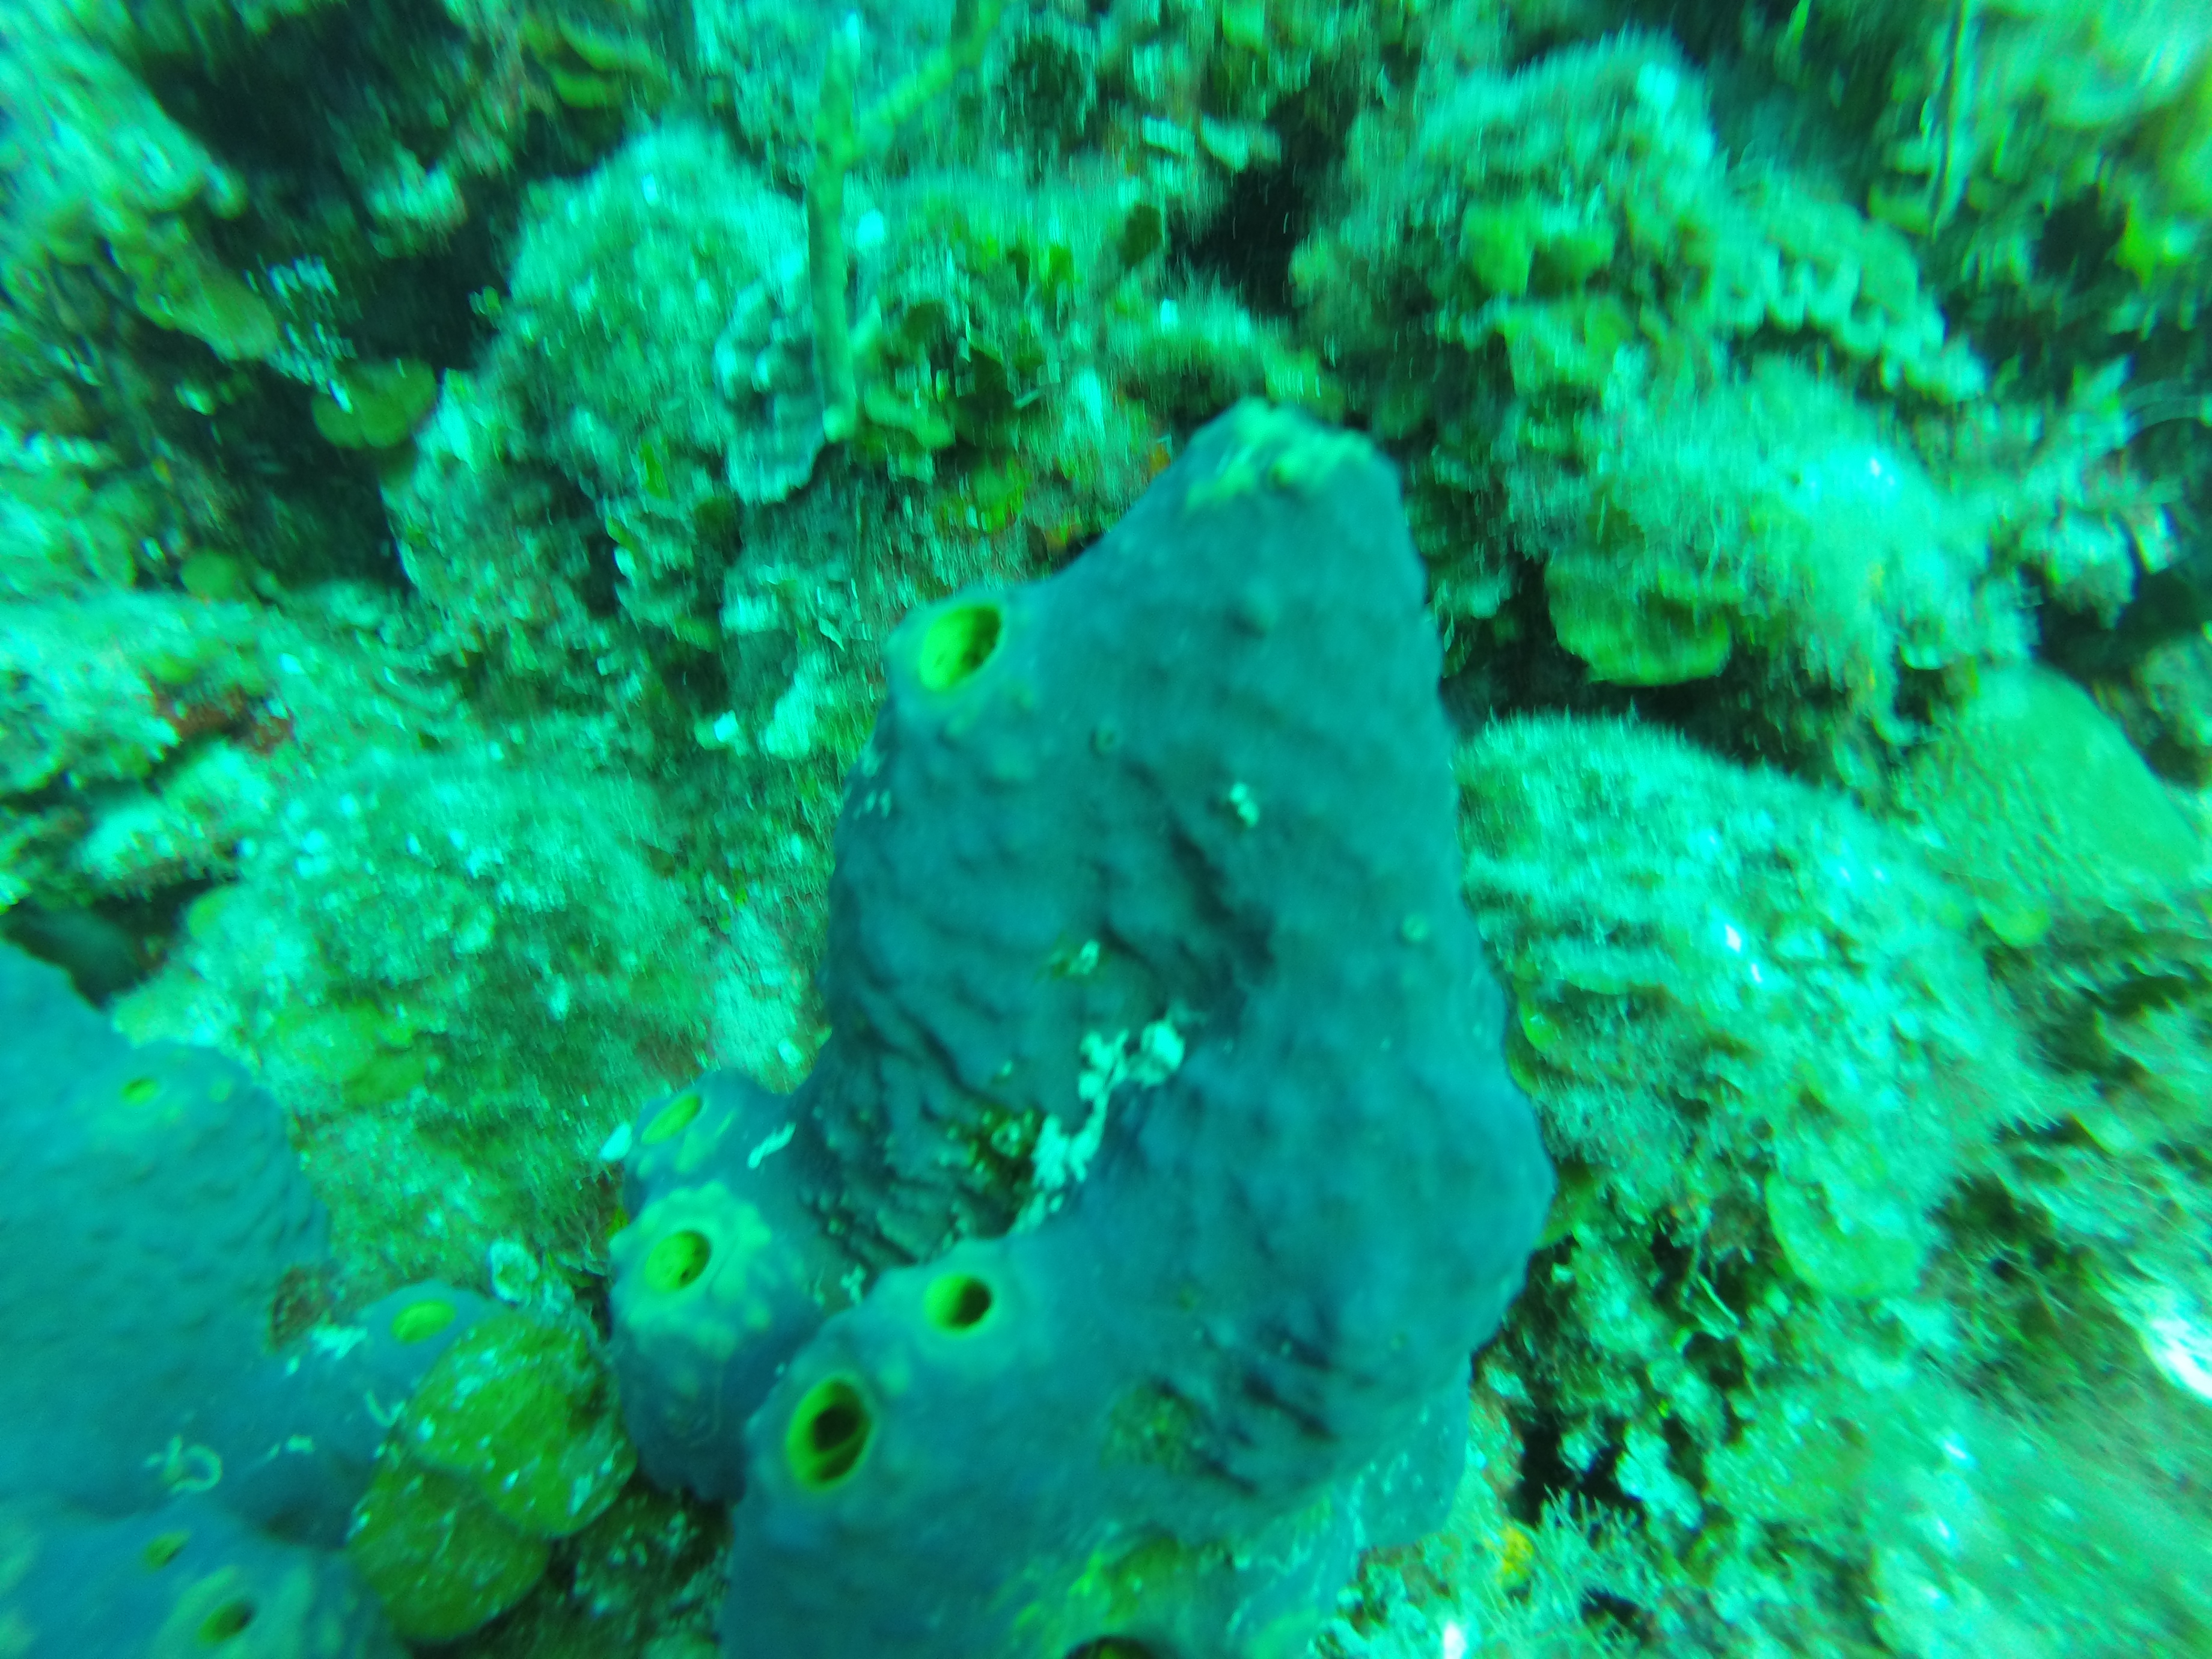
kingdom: Animalia
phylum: Porifera
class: Demospongiae
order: Verongiida
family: Aplysinidae
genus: Aiolochroia
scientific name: Aiolochroia
